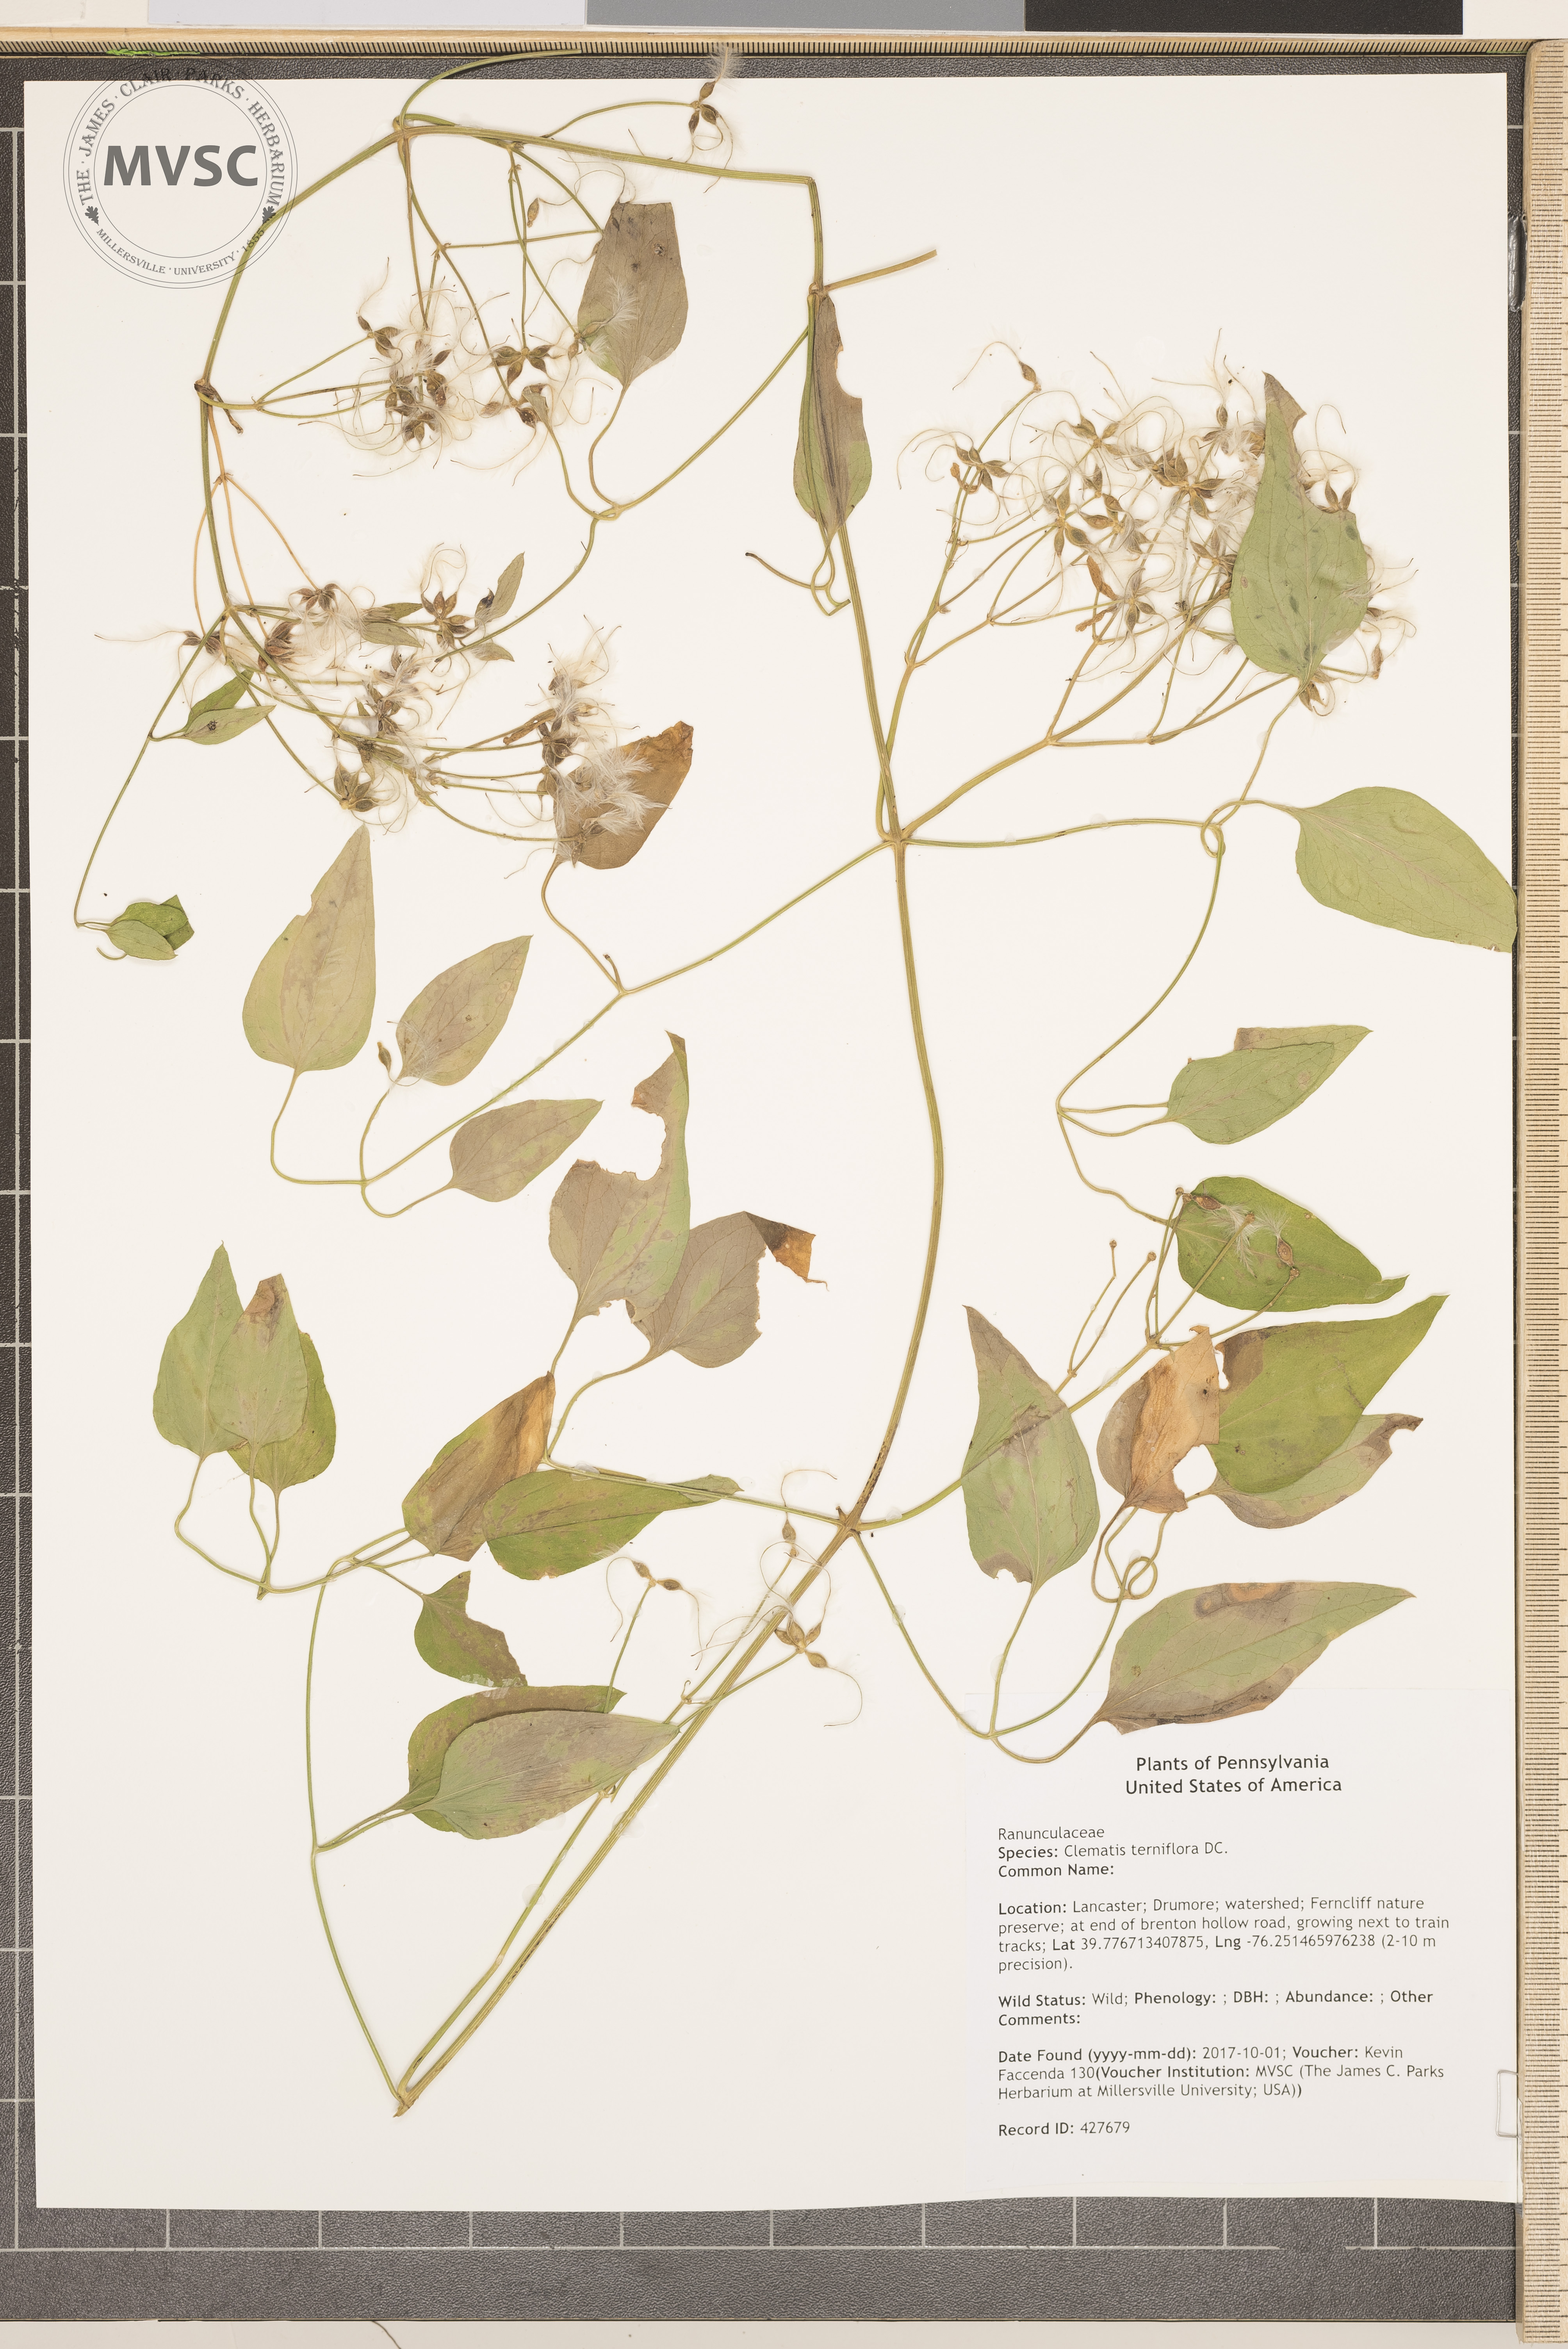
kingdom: Plantae
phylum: Tracheophyta
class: Magnoliopsida
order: Ranunculales
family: Ranunculaceae
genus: Clematis
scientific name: Clematis terniflora
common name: Sweet autumn clematis
